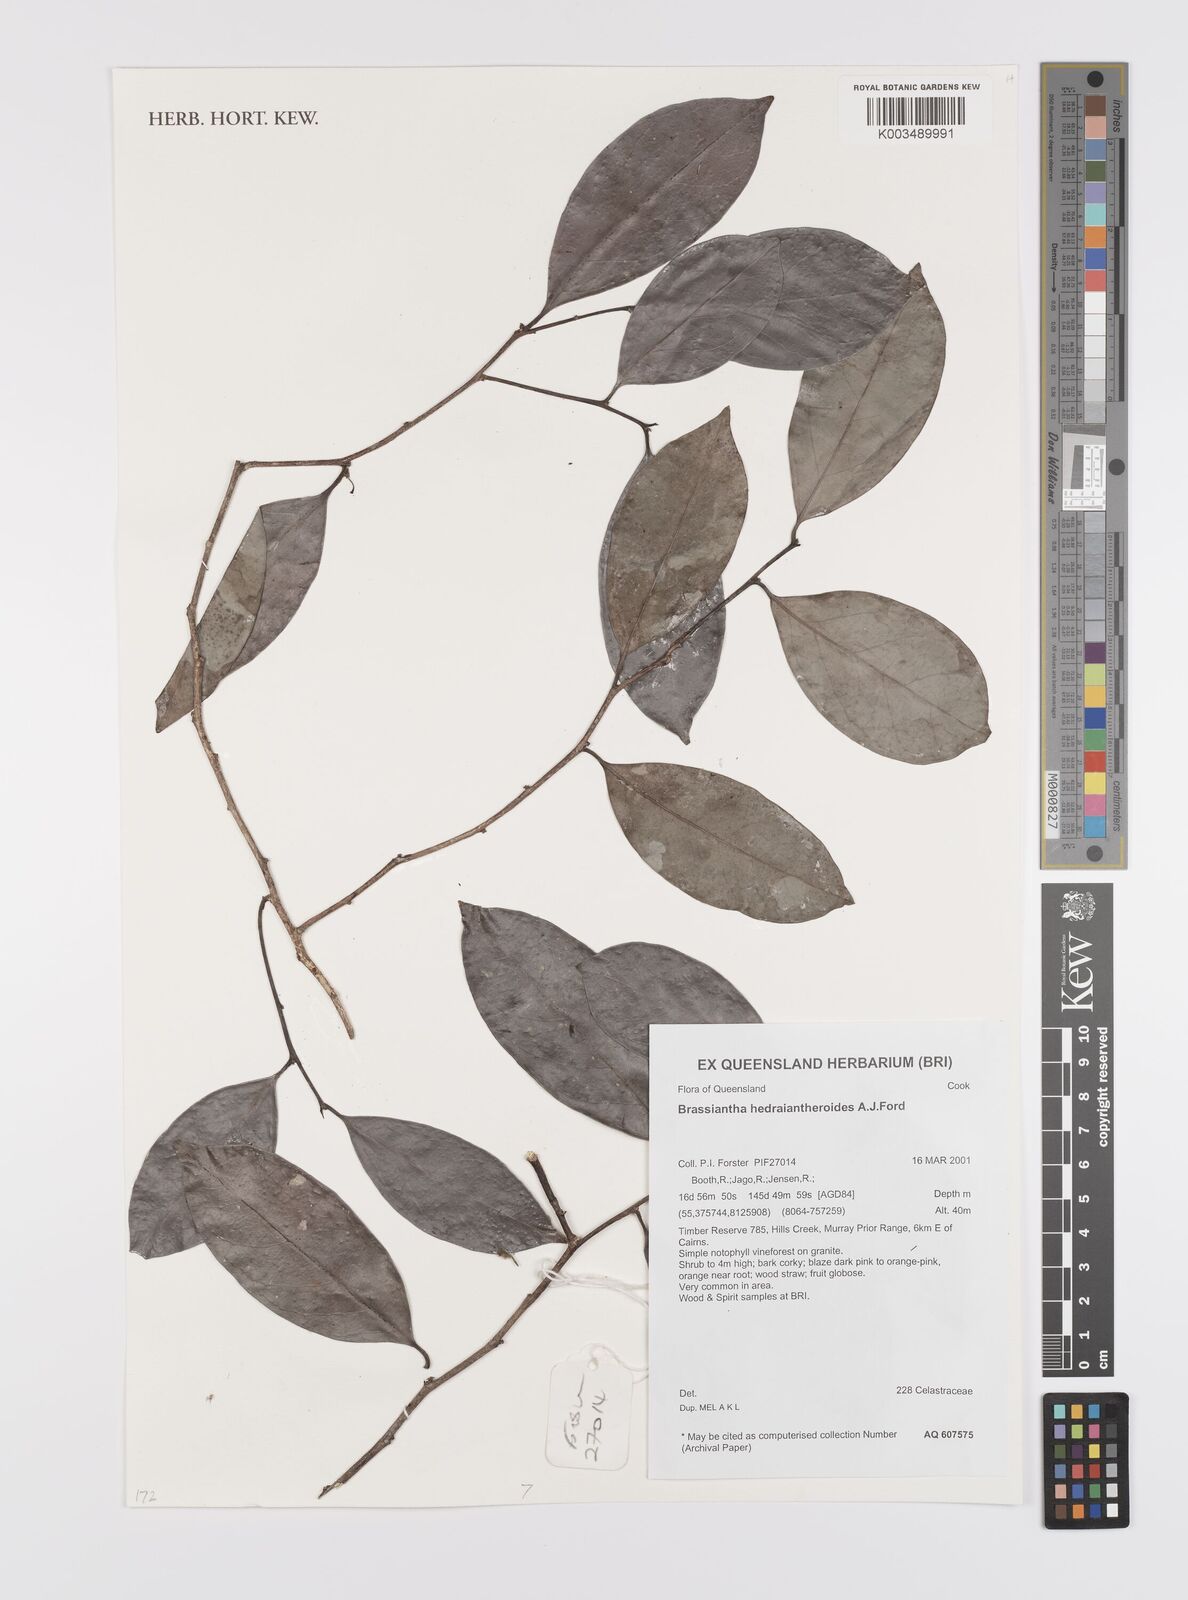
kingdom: Plantae
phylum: Tracheophyta
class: Magnoliopsida
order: Celastrales
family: Celastraceae
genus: Hedraianthera
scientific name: Hedraianthera porphyropetala
